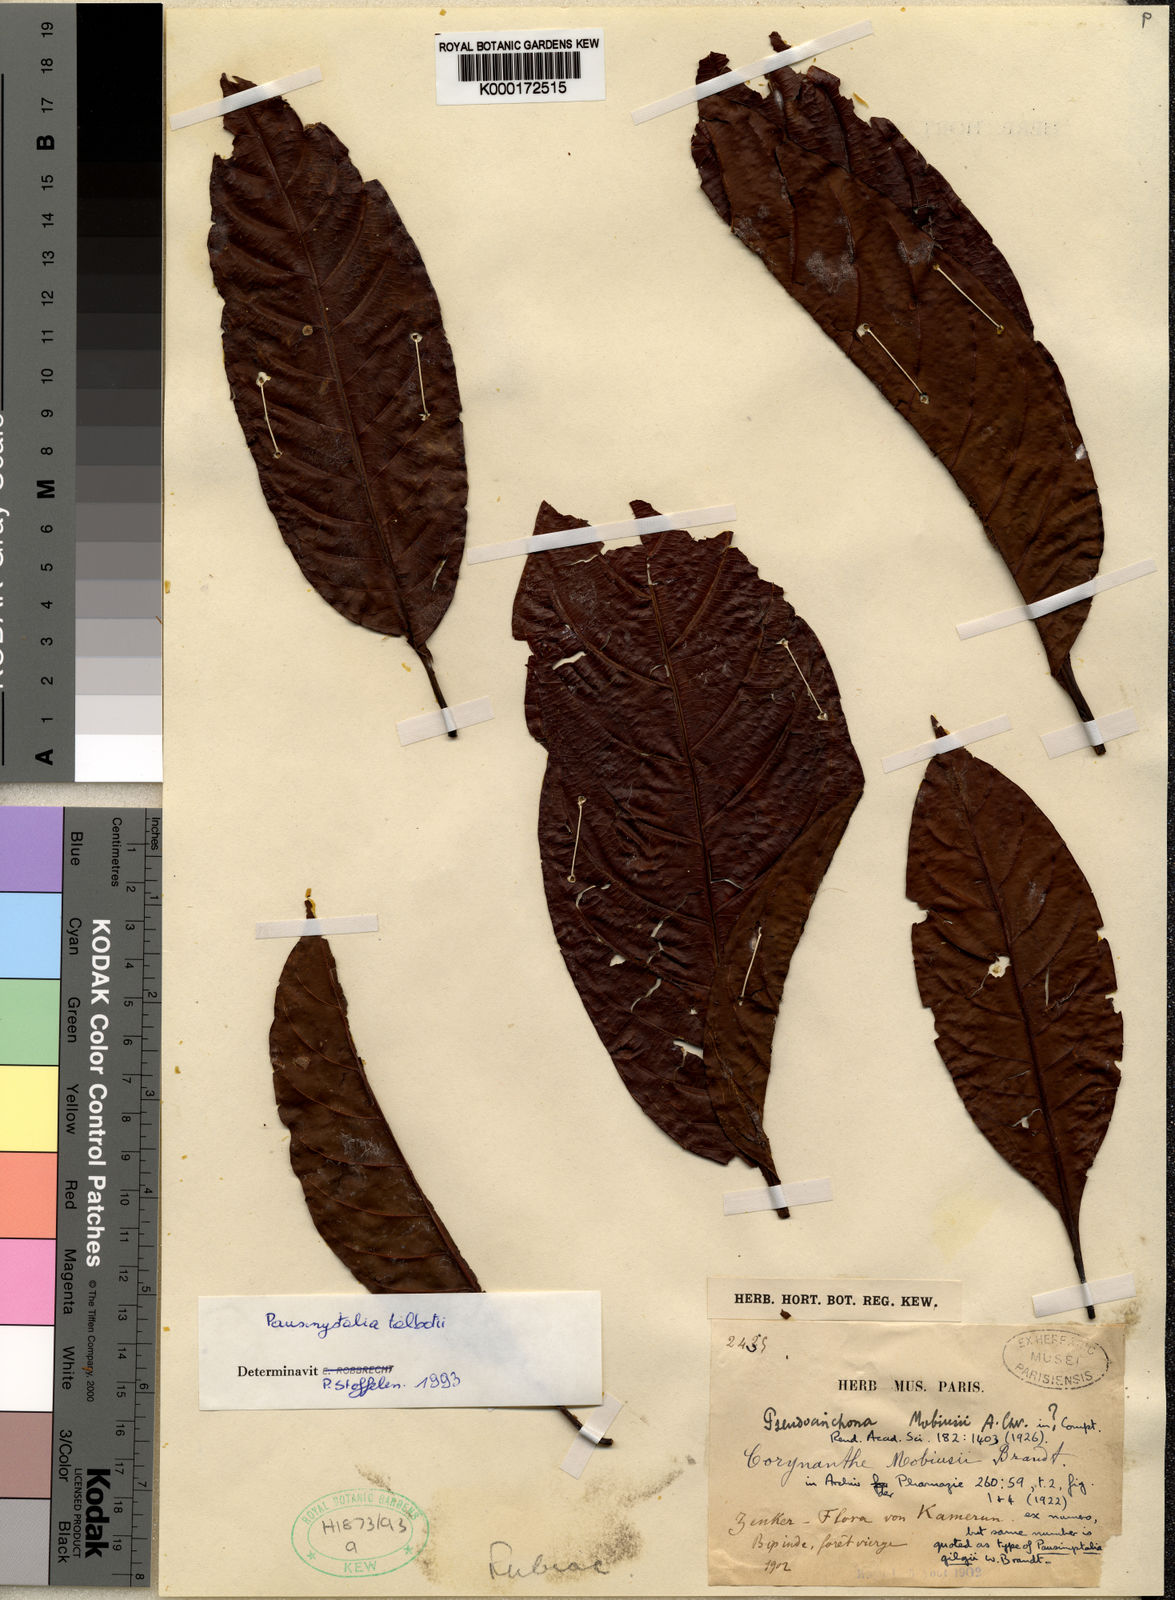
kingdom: Plantae
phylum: Tracheophyta
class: Magnoliopsida
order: Gentianales
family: Rubiaceae
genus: Corynanthe
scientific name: Corynanthe talbotii
